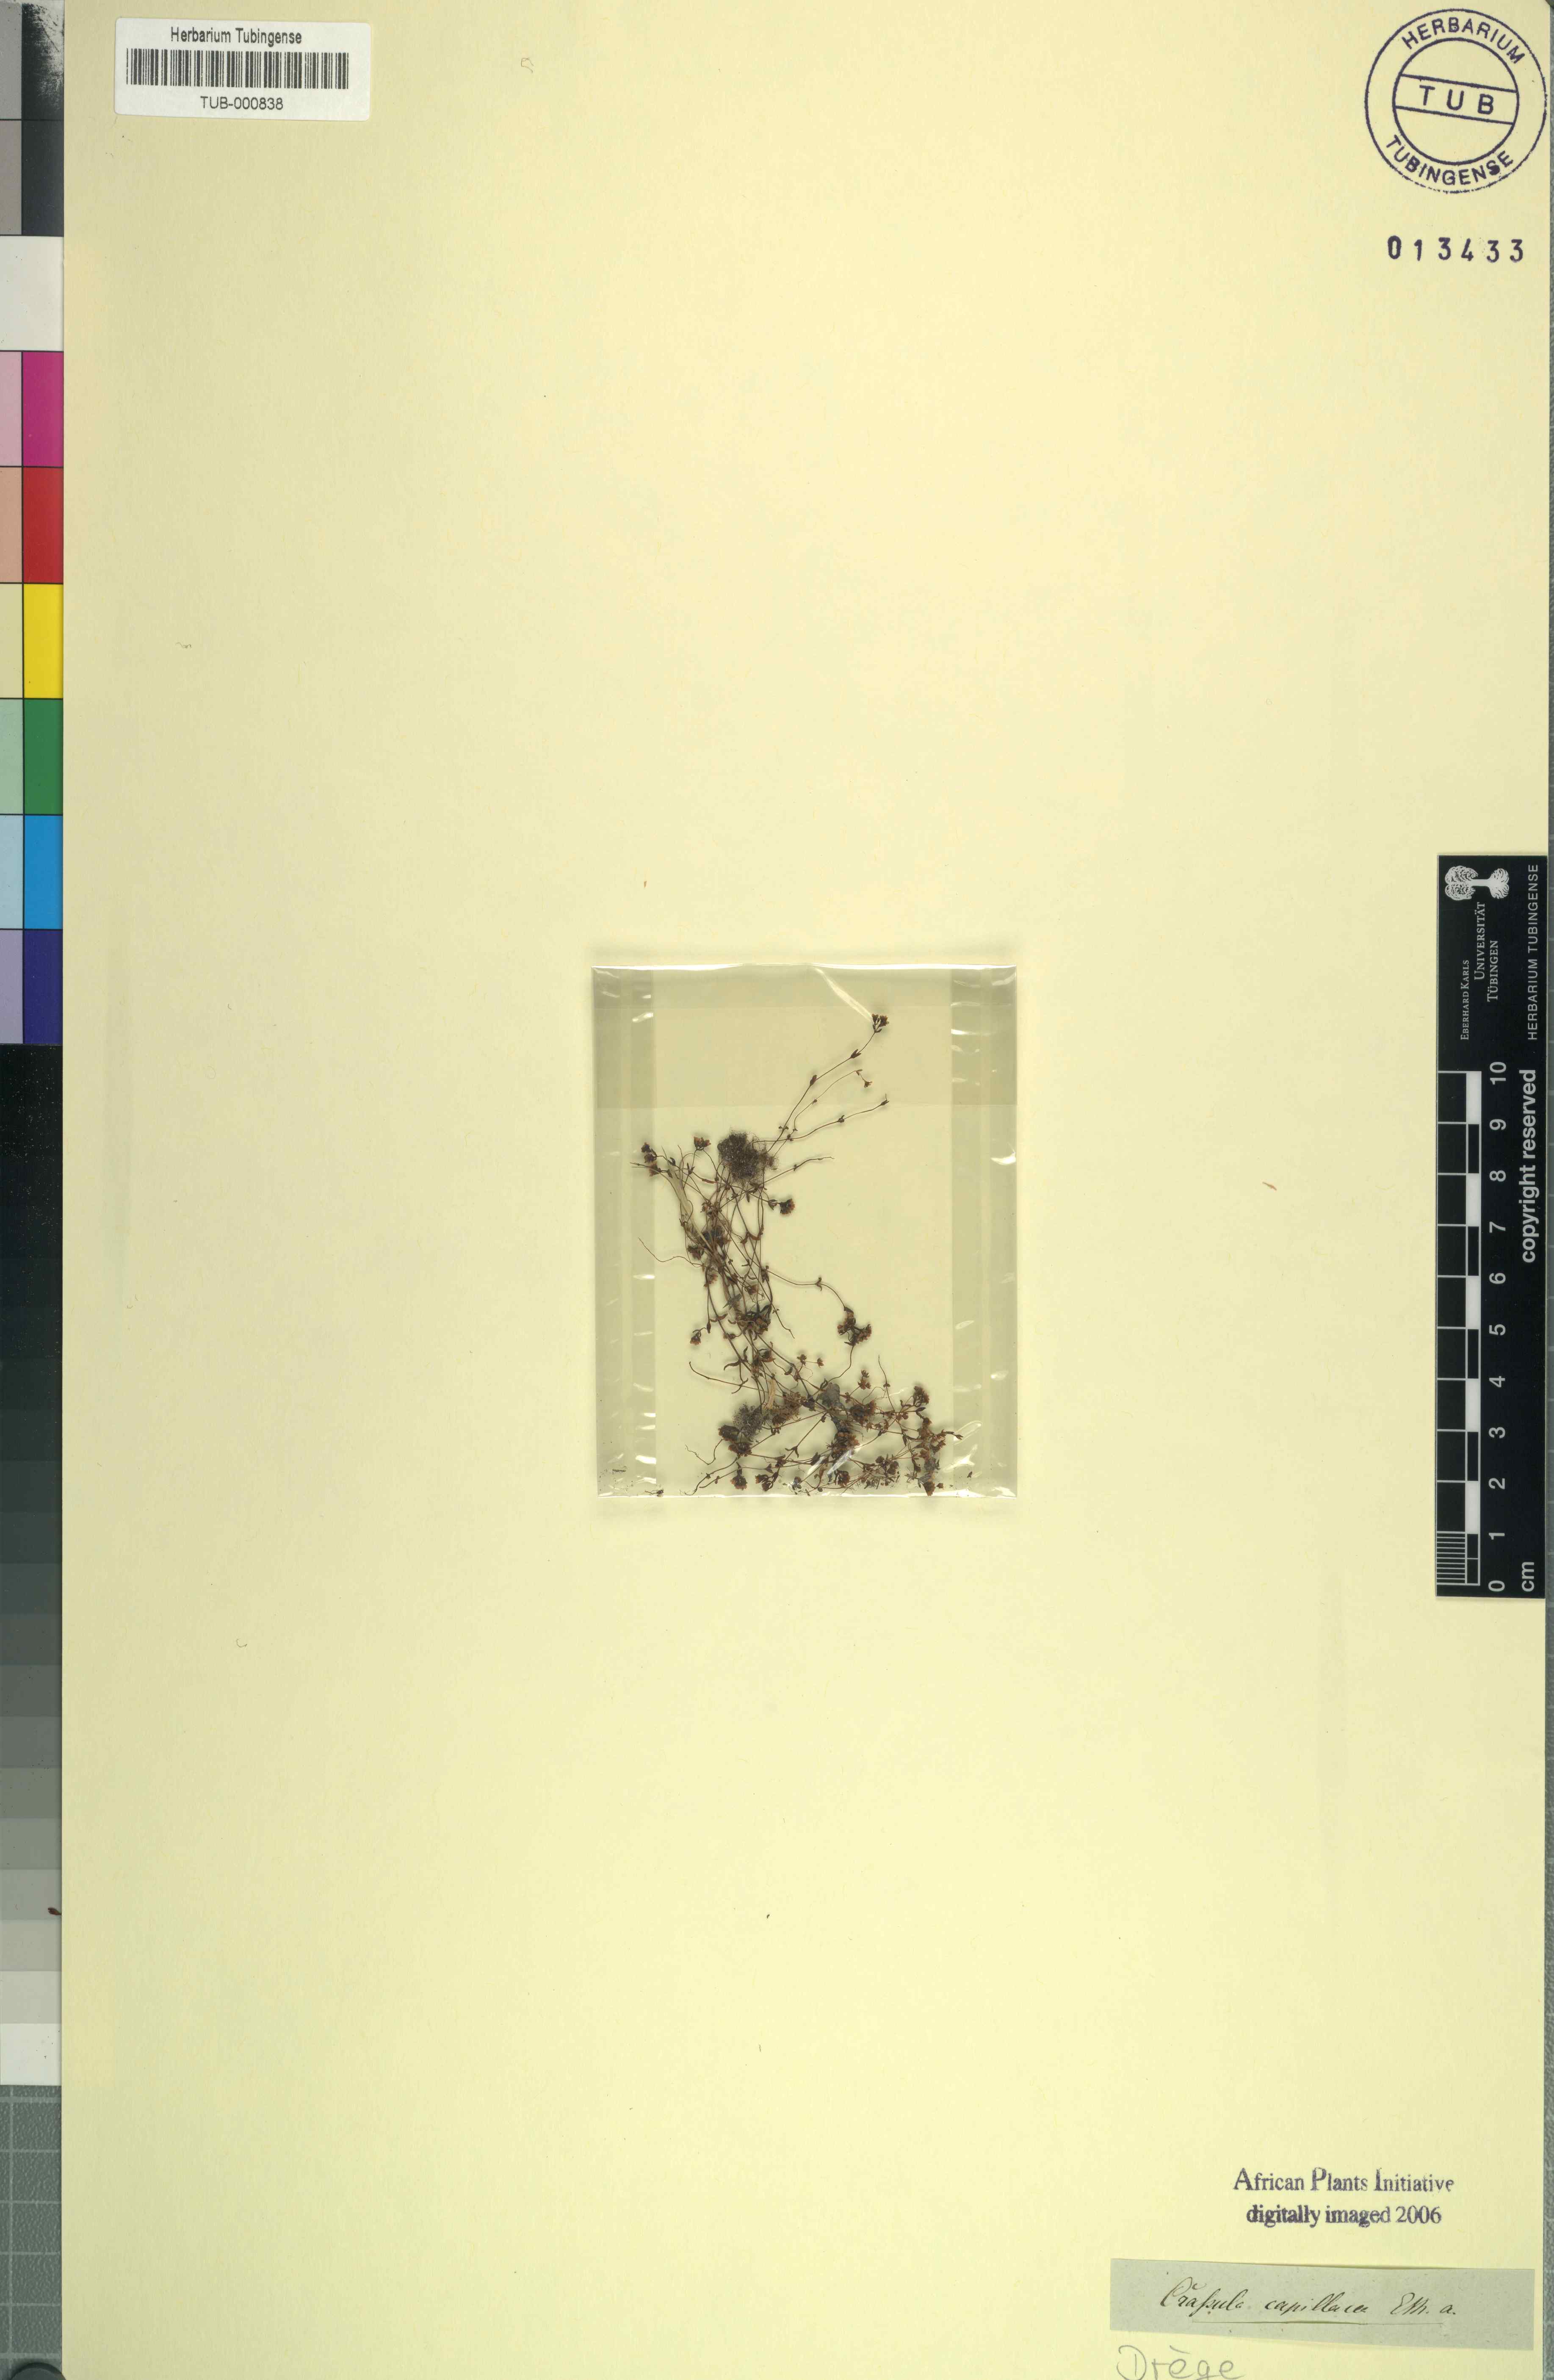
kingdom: Plantae
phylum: Tracheophyta
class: Magnoliopsida
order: Saxifragales
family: Crassulaceae
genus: Crassula
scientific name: Crassula glomerata
